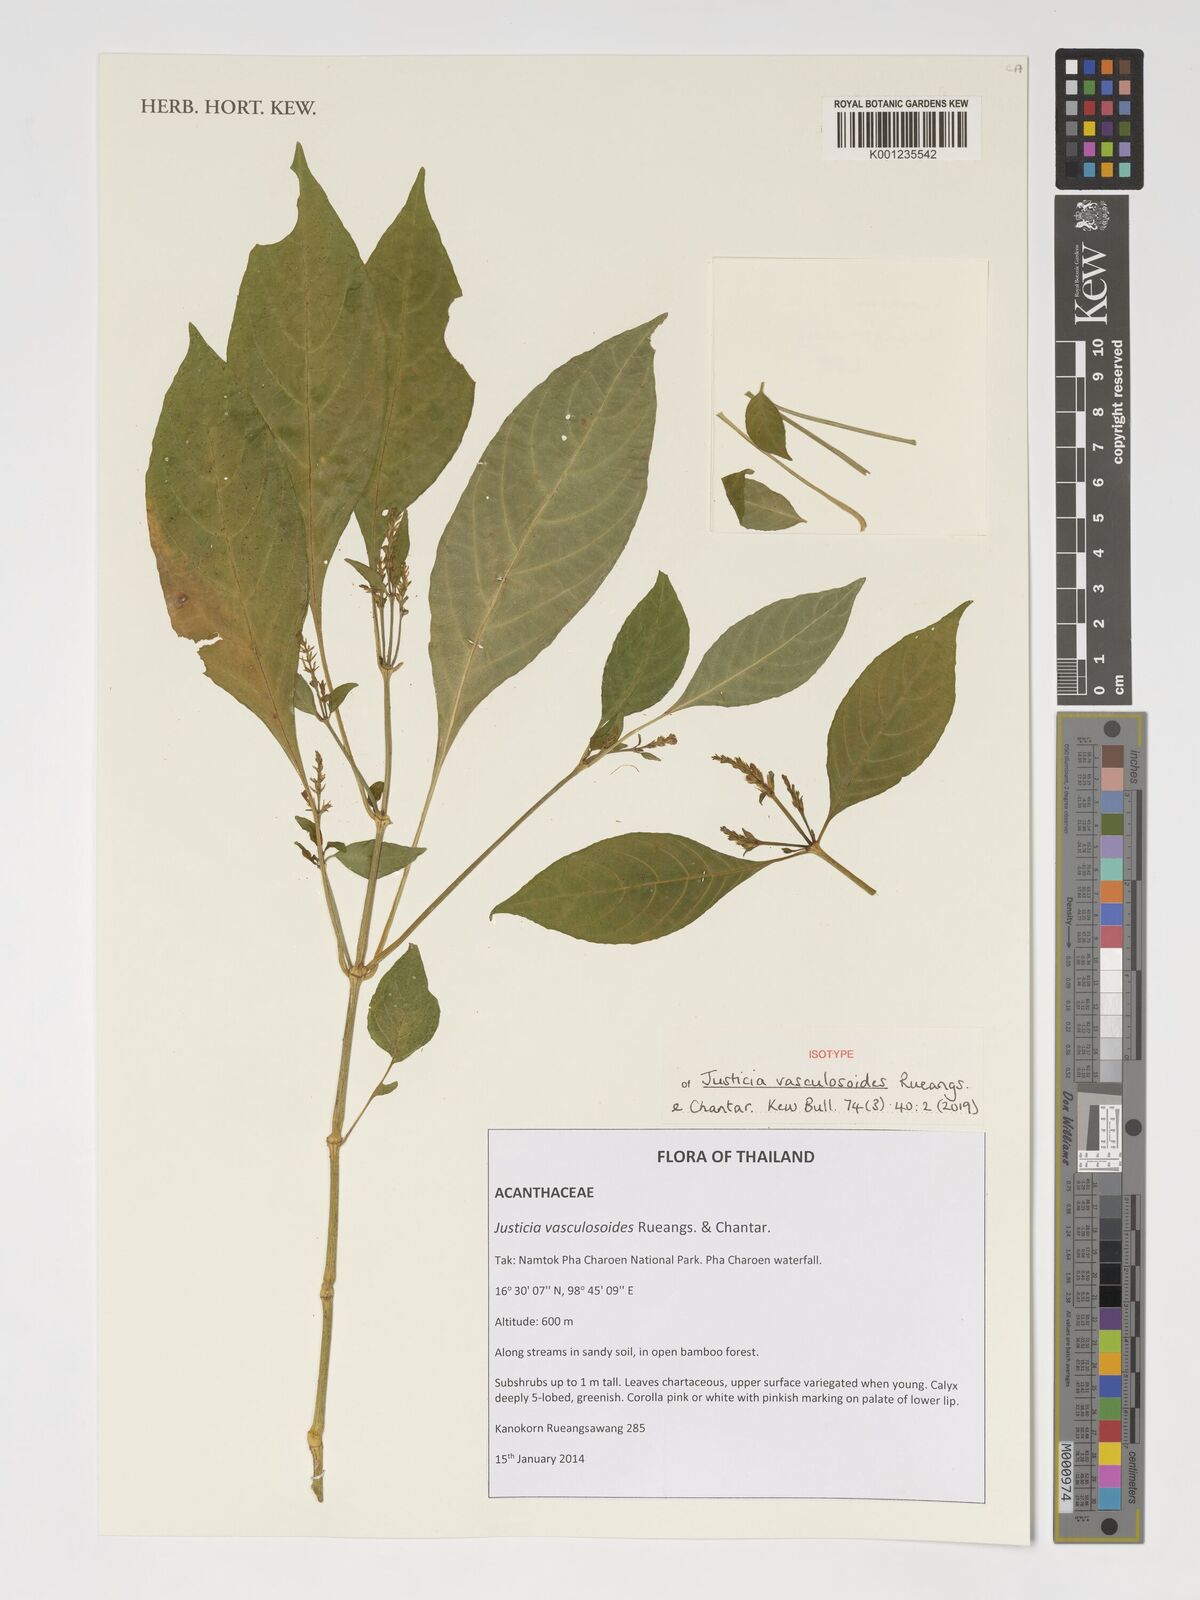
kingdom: Plantae
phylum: Tracheophyta
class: Magnoliopsida
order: Lamiales
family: Acanthaceae
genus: Justicia
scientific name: Justicia vasculosoides
